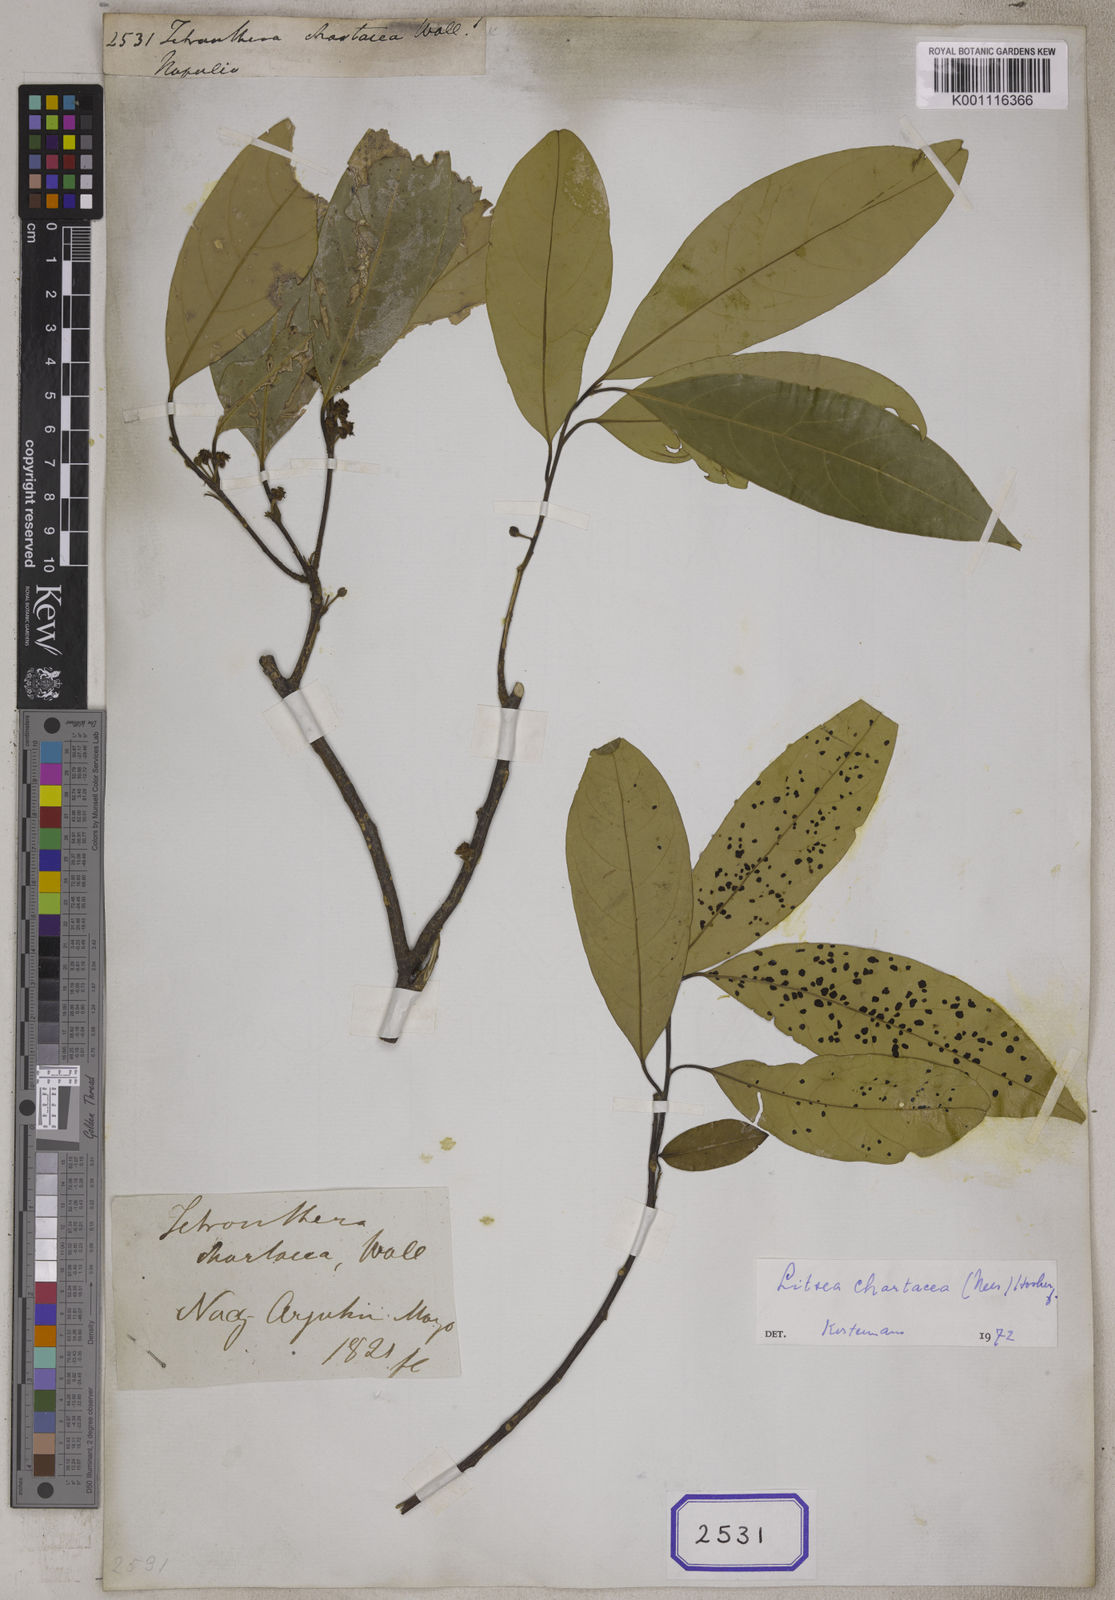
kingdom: Plantae
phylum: Tracheophyta
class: Magnoliopsida
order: Laurales
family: Lauraceae
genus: Litsea
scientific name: Litsea
